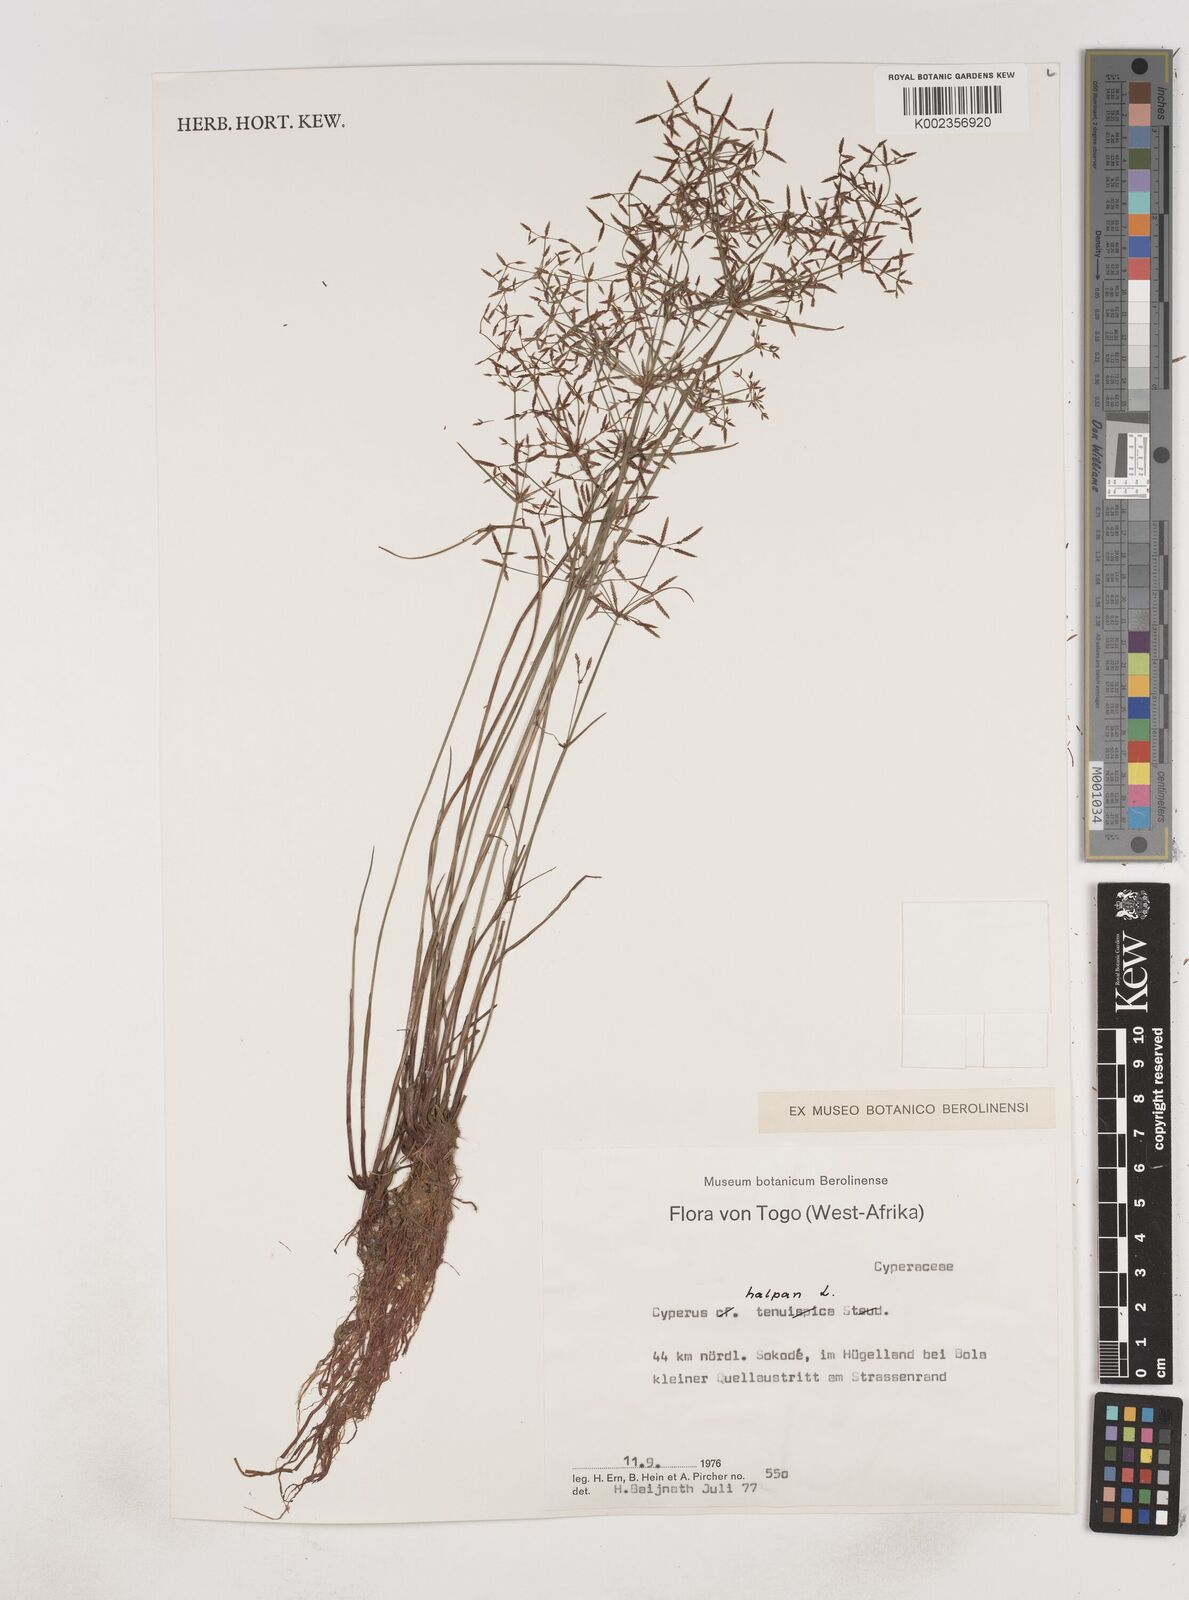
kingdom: Plantae
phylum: Tracheophyta
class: Liliopsida
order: Poales
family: Cyperaceae
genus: Cyperus
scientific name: Cyperus haspan
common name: Haspan flatsedge
